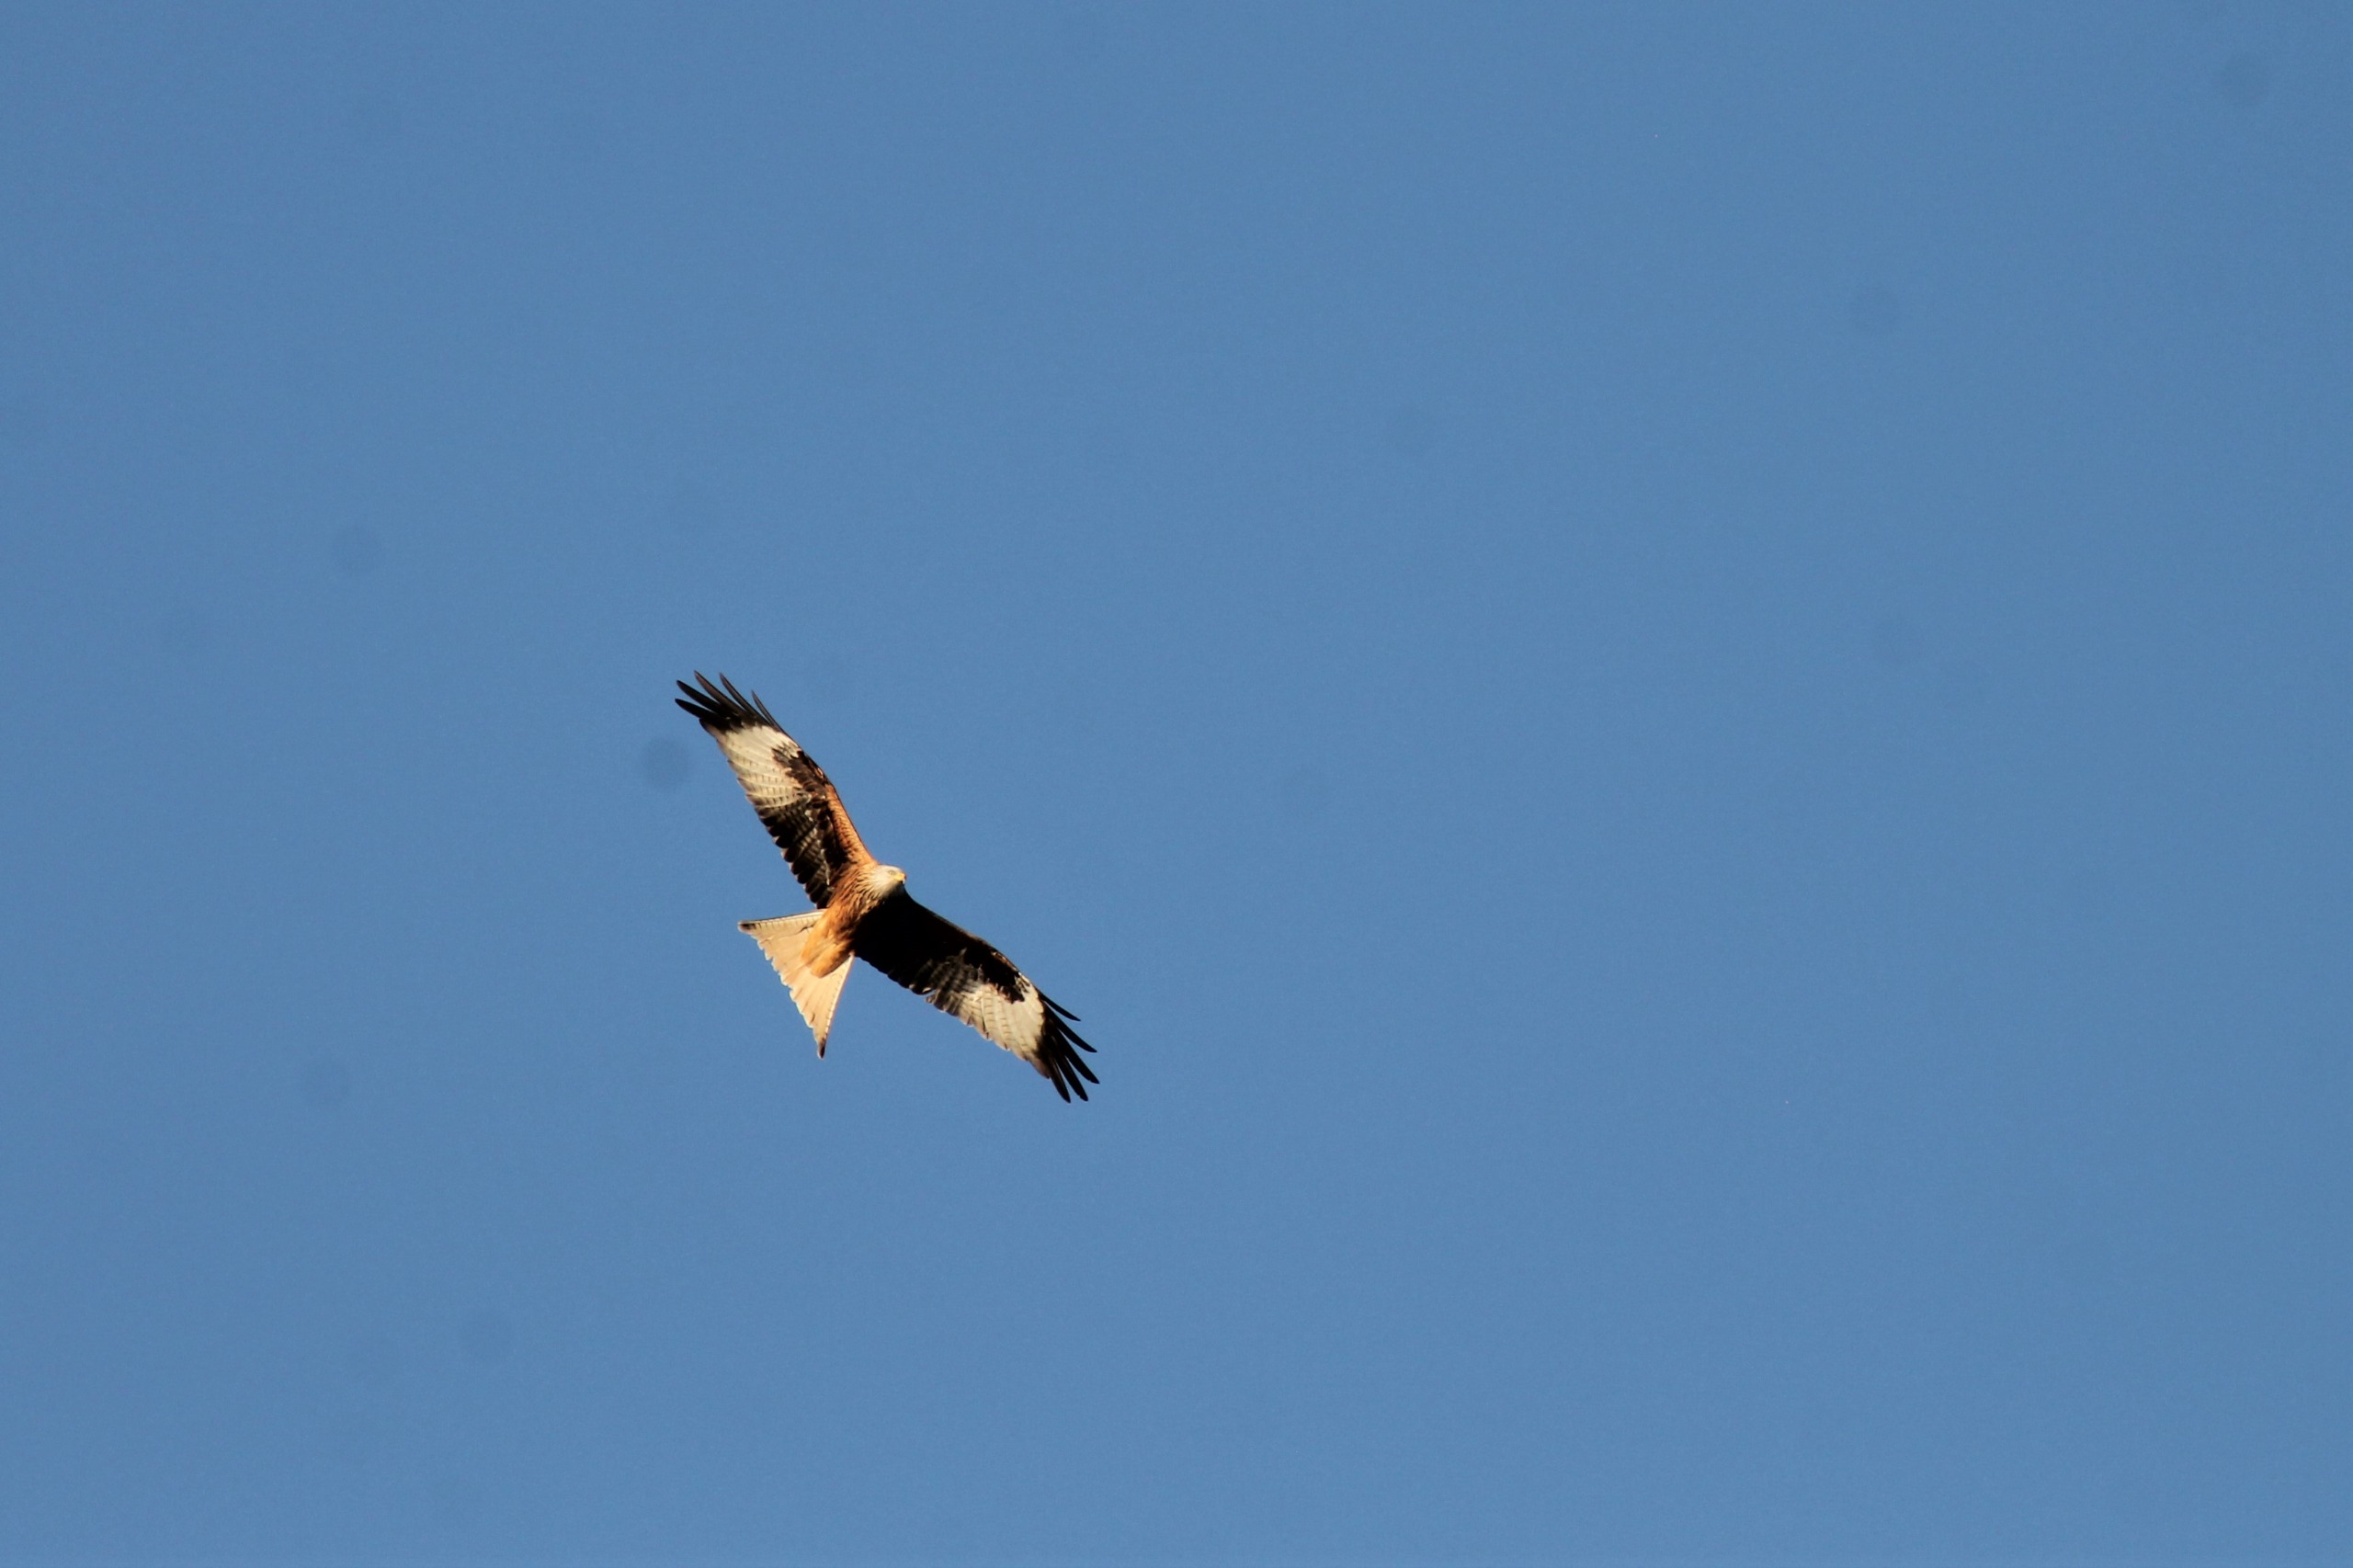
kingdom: Animalia
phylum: Chordata
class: Aves
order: Accipitriformes
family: Accipitridae
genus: Milvus
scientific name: Milvus milvus
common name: Rød glente
